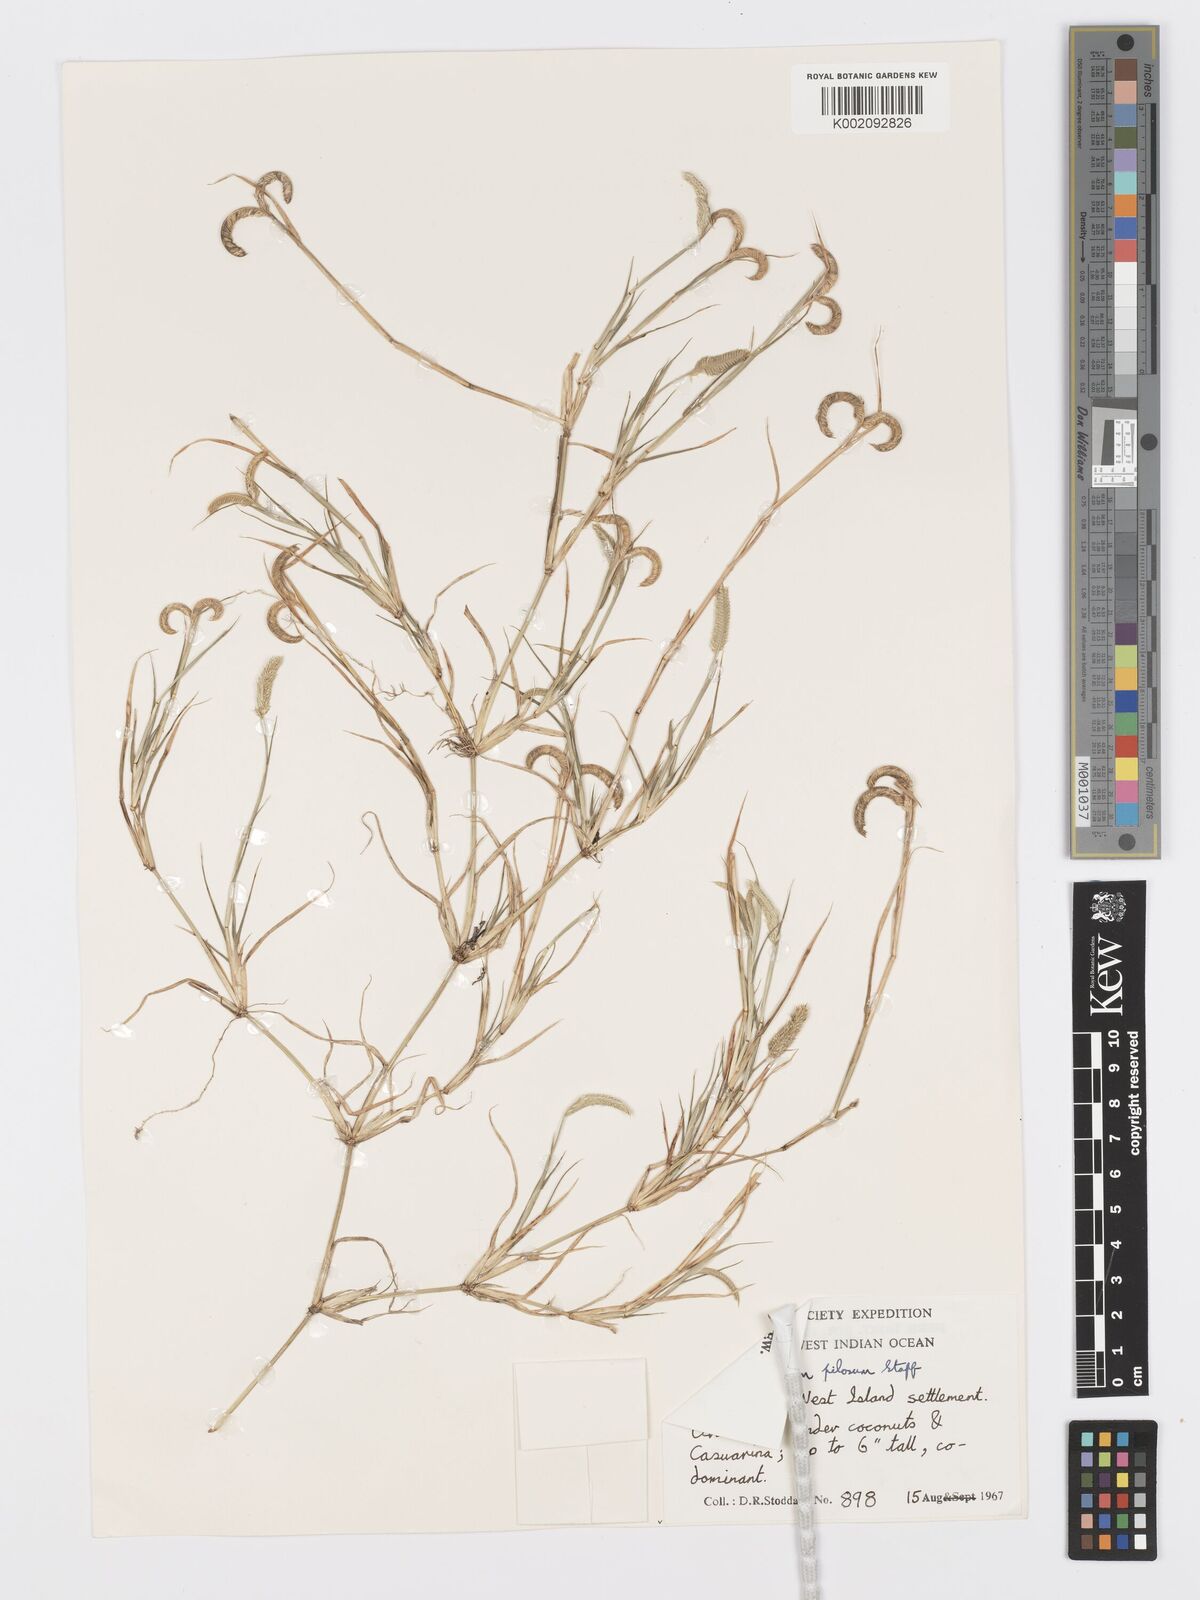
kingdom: Plantae
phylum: Tracheophyta
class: Liliopsida
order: Poales
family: Poaceae
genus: Dactyloctenium
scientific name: Dactyloctenium pilosum
